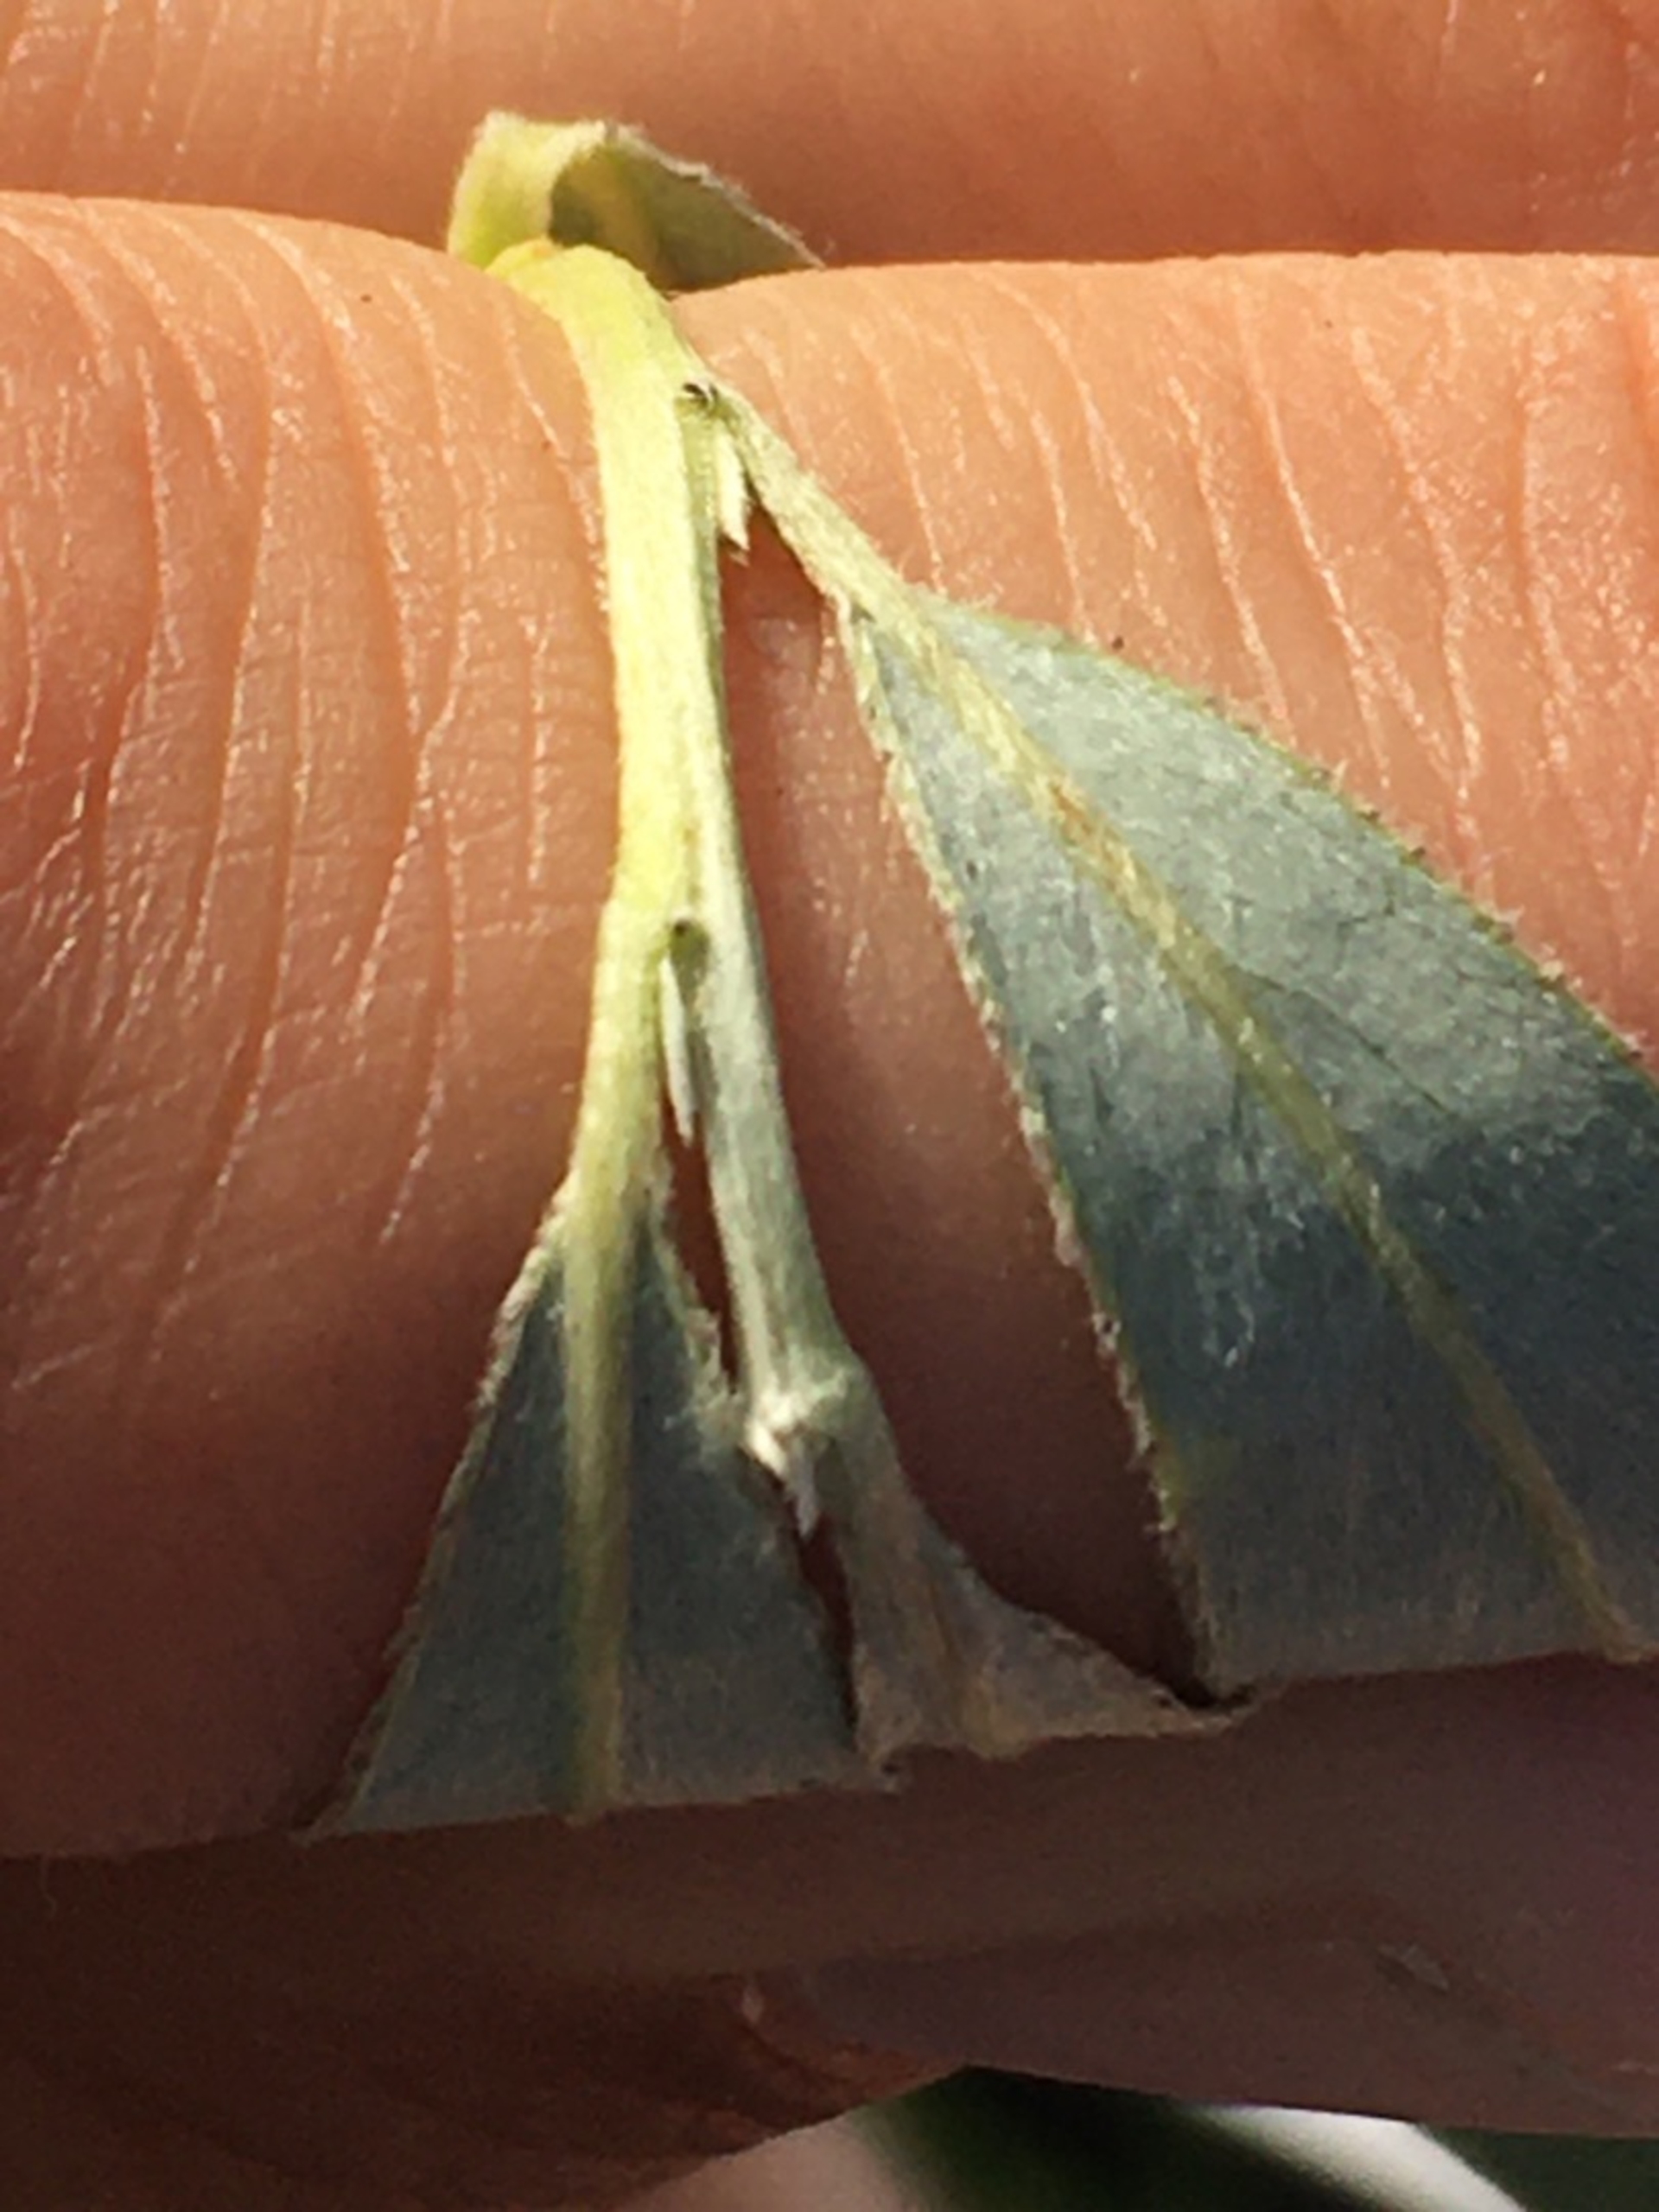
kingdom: Plantae
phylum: Tracheophyta
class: Magnoliopsida
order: Malpighiales
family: Salicaceae
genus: Salix
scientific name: Salix alba
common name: Hvid-pil
